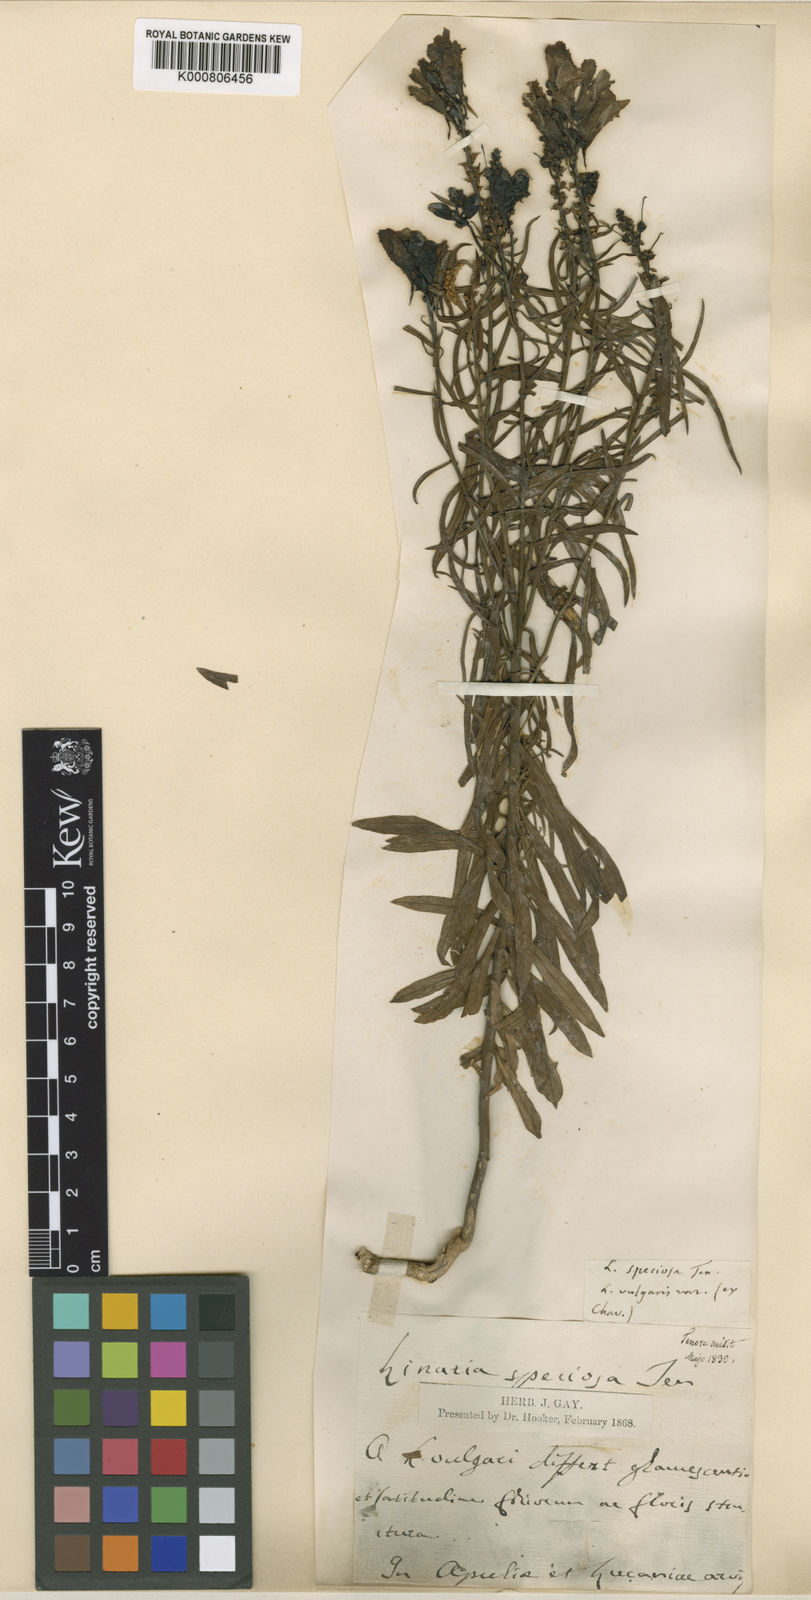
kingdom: Plantae
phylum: Tracheophyta
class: Magnoliopsida
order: Lamiales
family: Plantaginaceae
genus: Linaria
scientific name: Linaria vulgaris
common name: Butter and eggs
